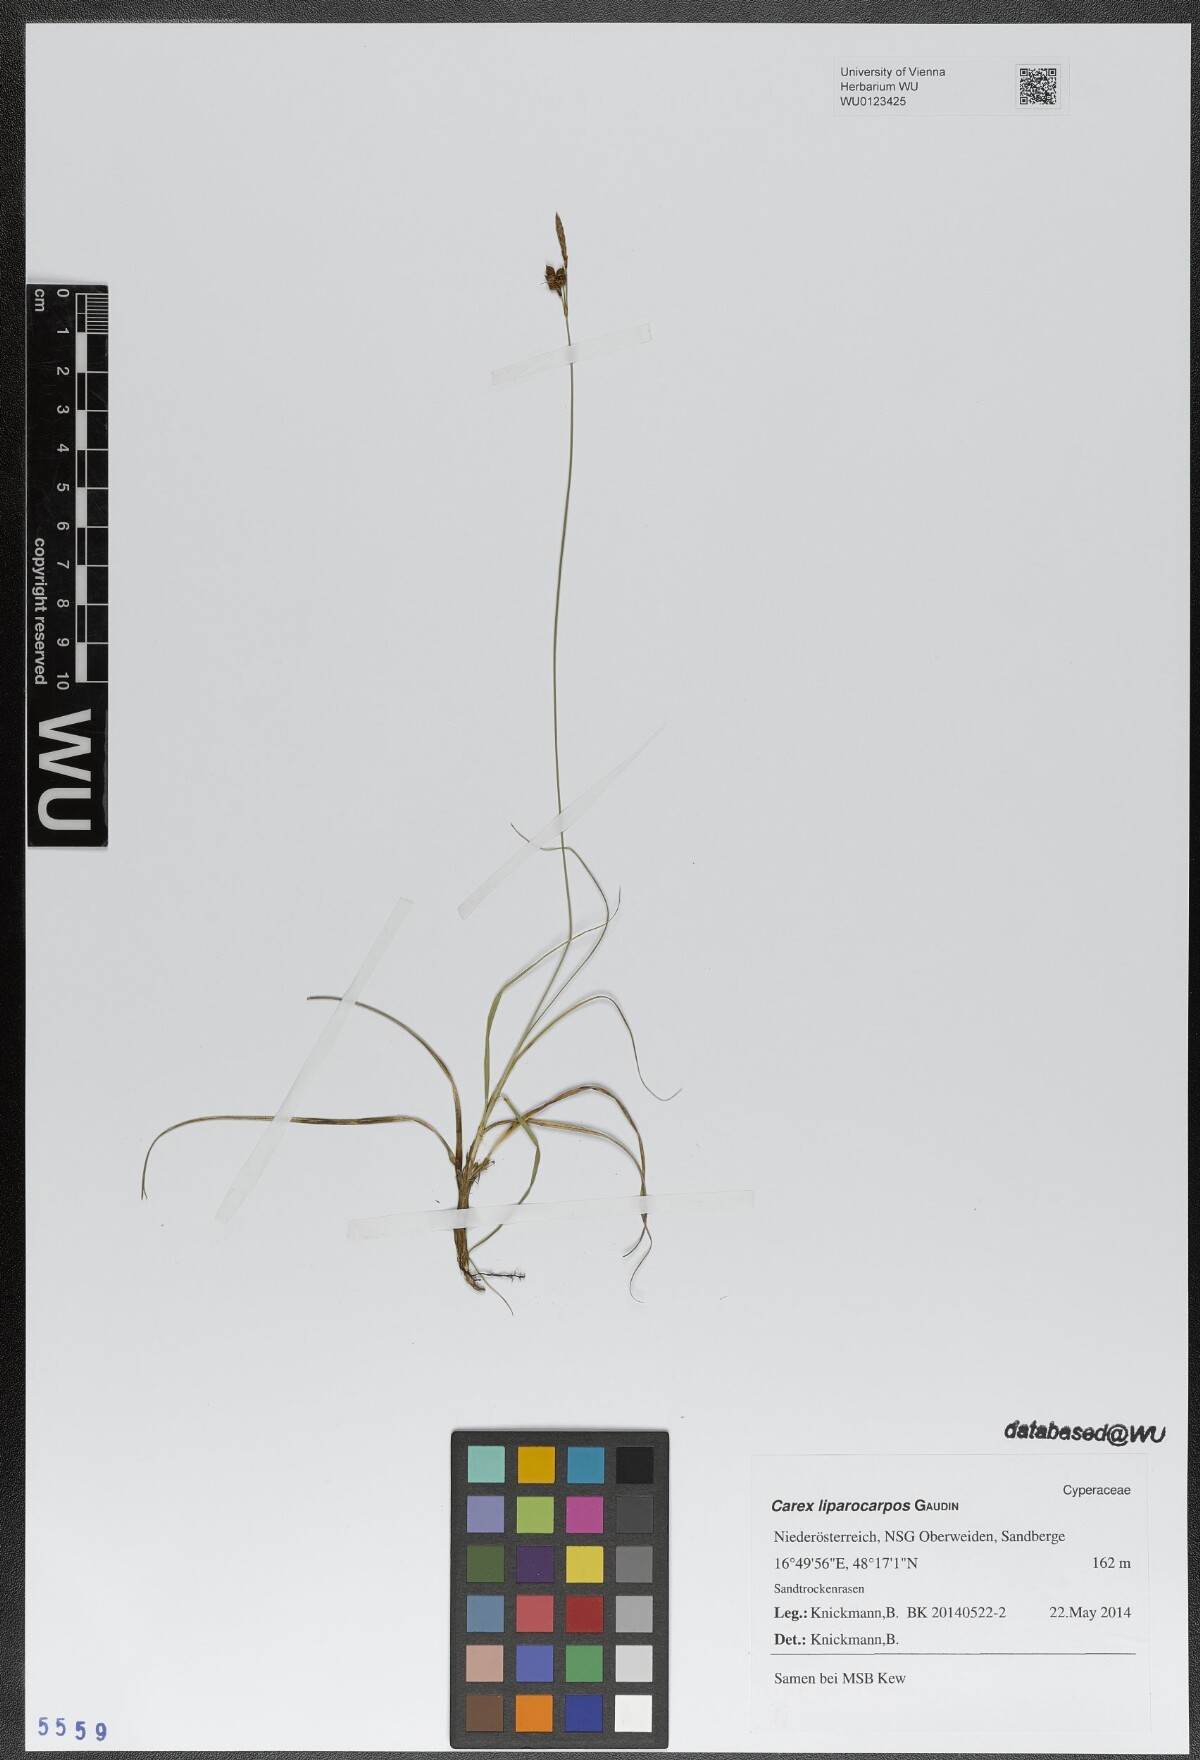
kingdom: Plantae
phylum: Tracheophyta
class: Liliopsida
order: Poales
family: Cyperaceae
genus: Carex
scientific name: Carex liparocarpos
